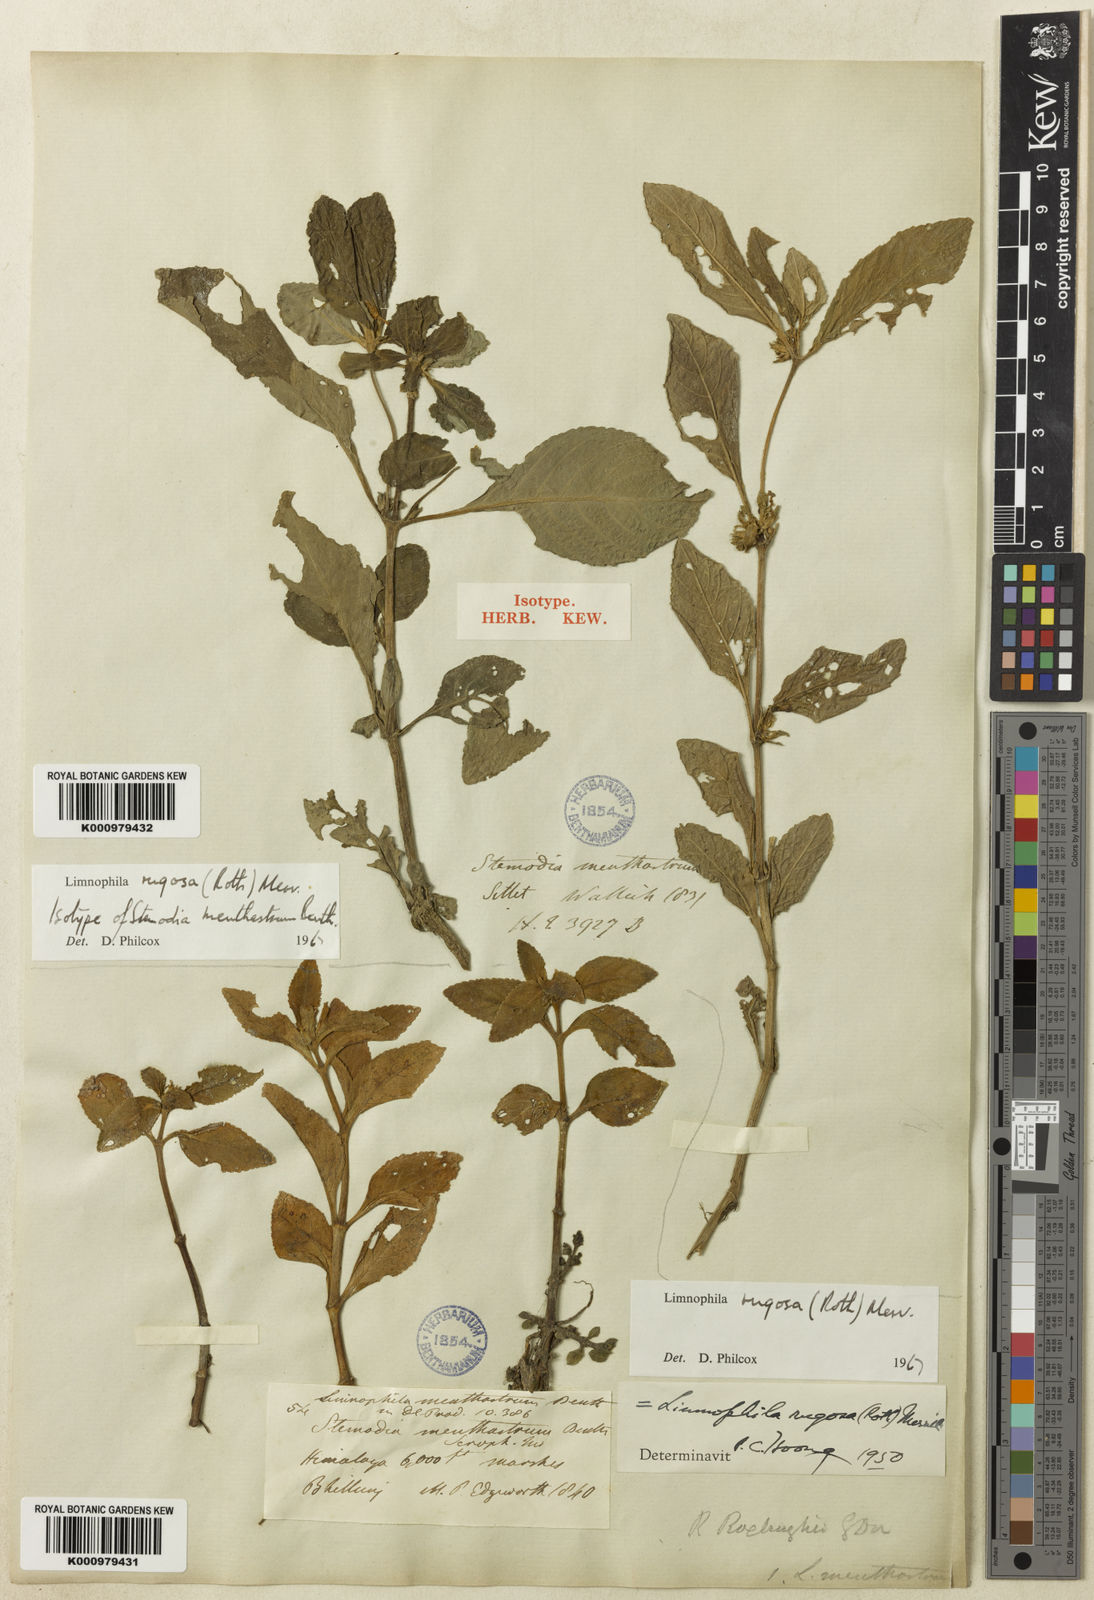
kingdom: Plantae
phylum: Tracheophyta
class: Magnoliopsida
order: Lamiales
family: Plantaginaceae
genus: Limnophila
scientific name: Limnophila rugosa
